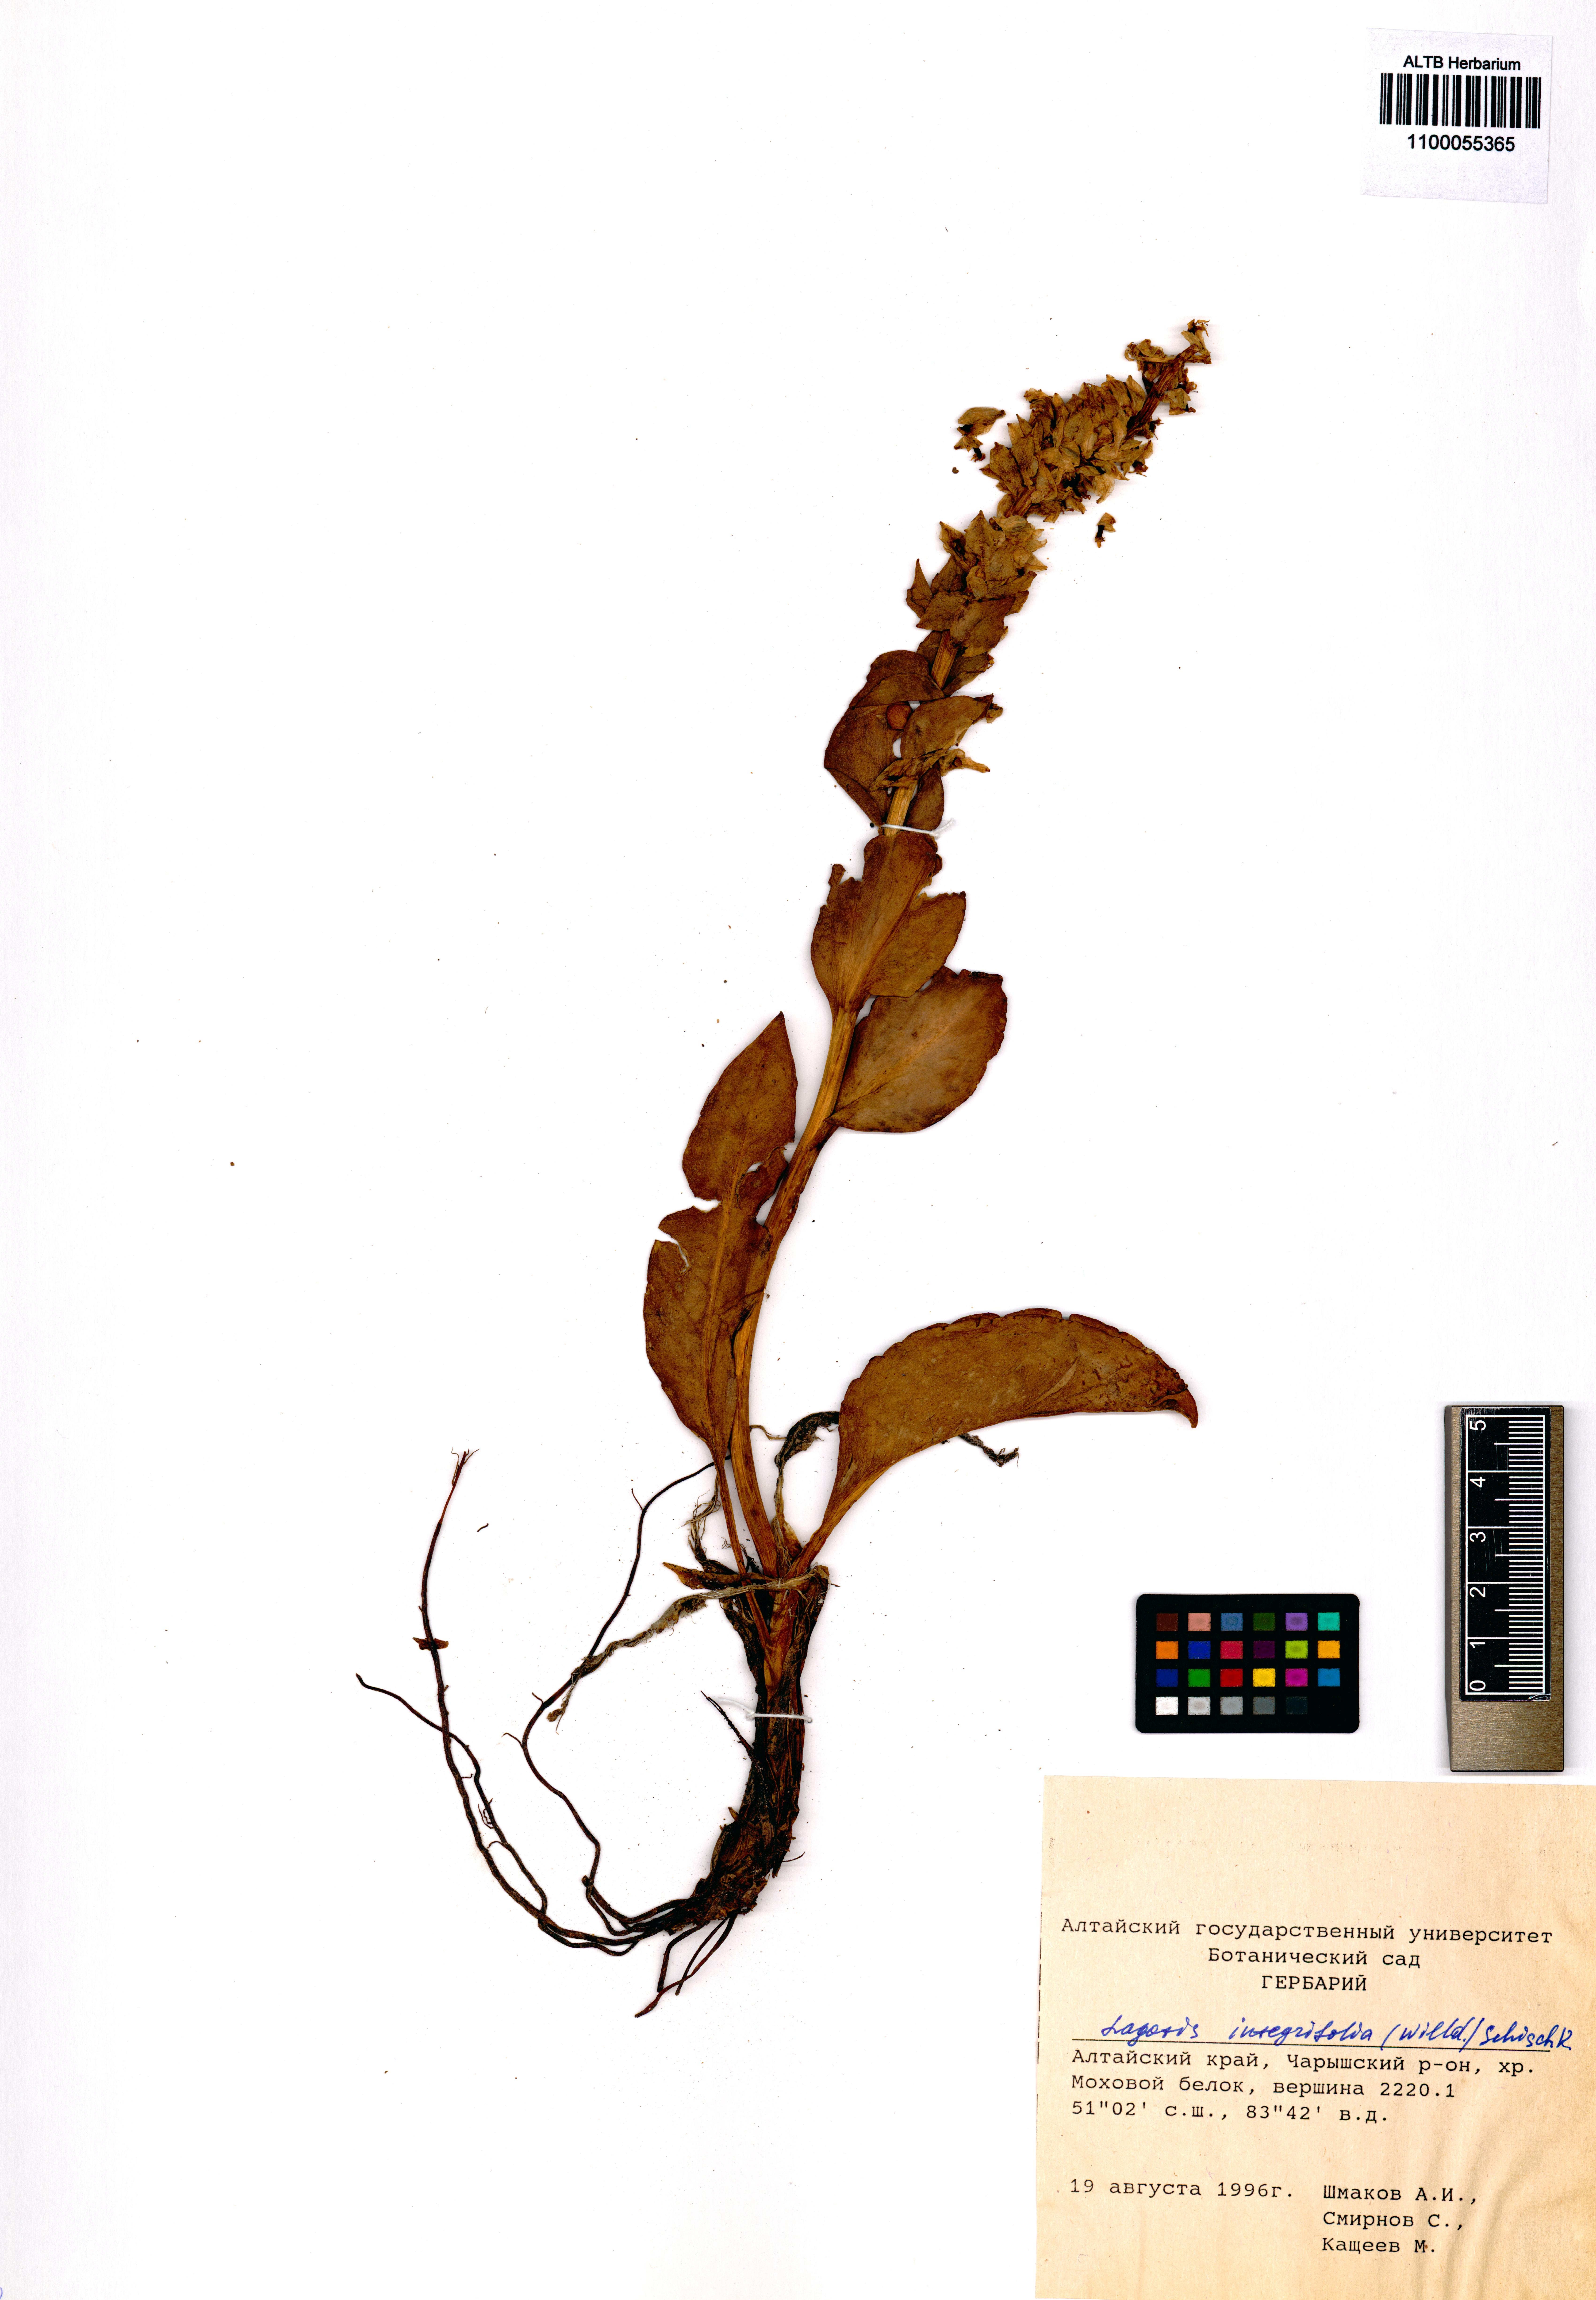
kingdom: Plantae
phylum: Tracheophyta
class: Magnoliopsida
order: Lamiales
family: Plantaginaceae
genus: Lagotis
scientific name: Lagotis integrifolia
